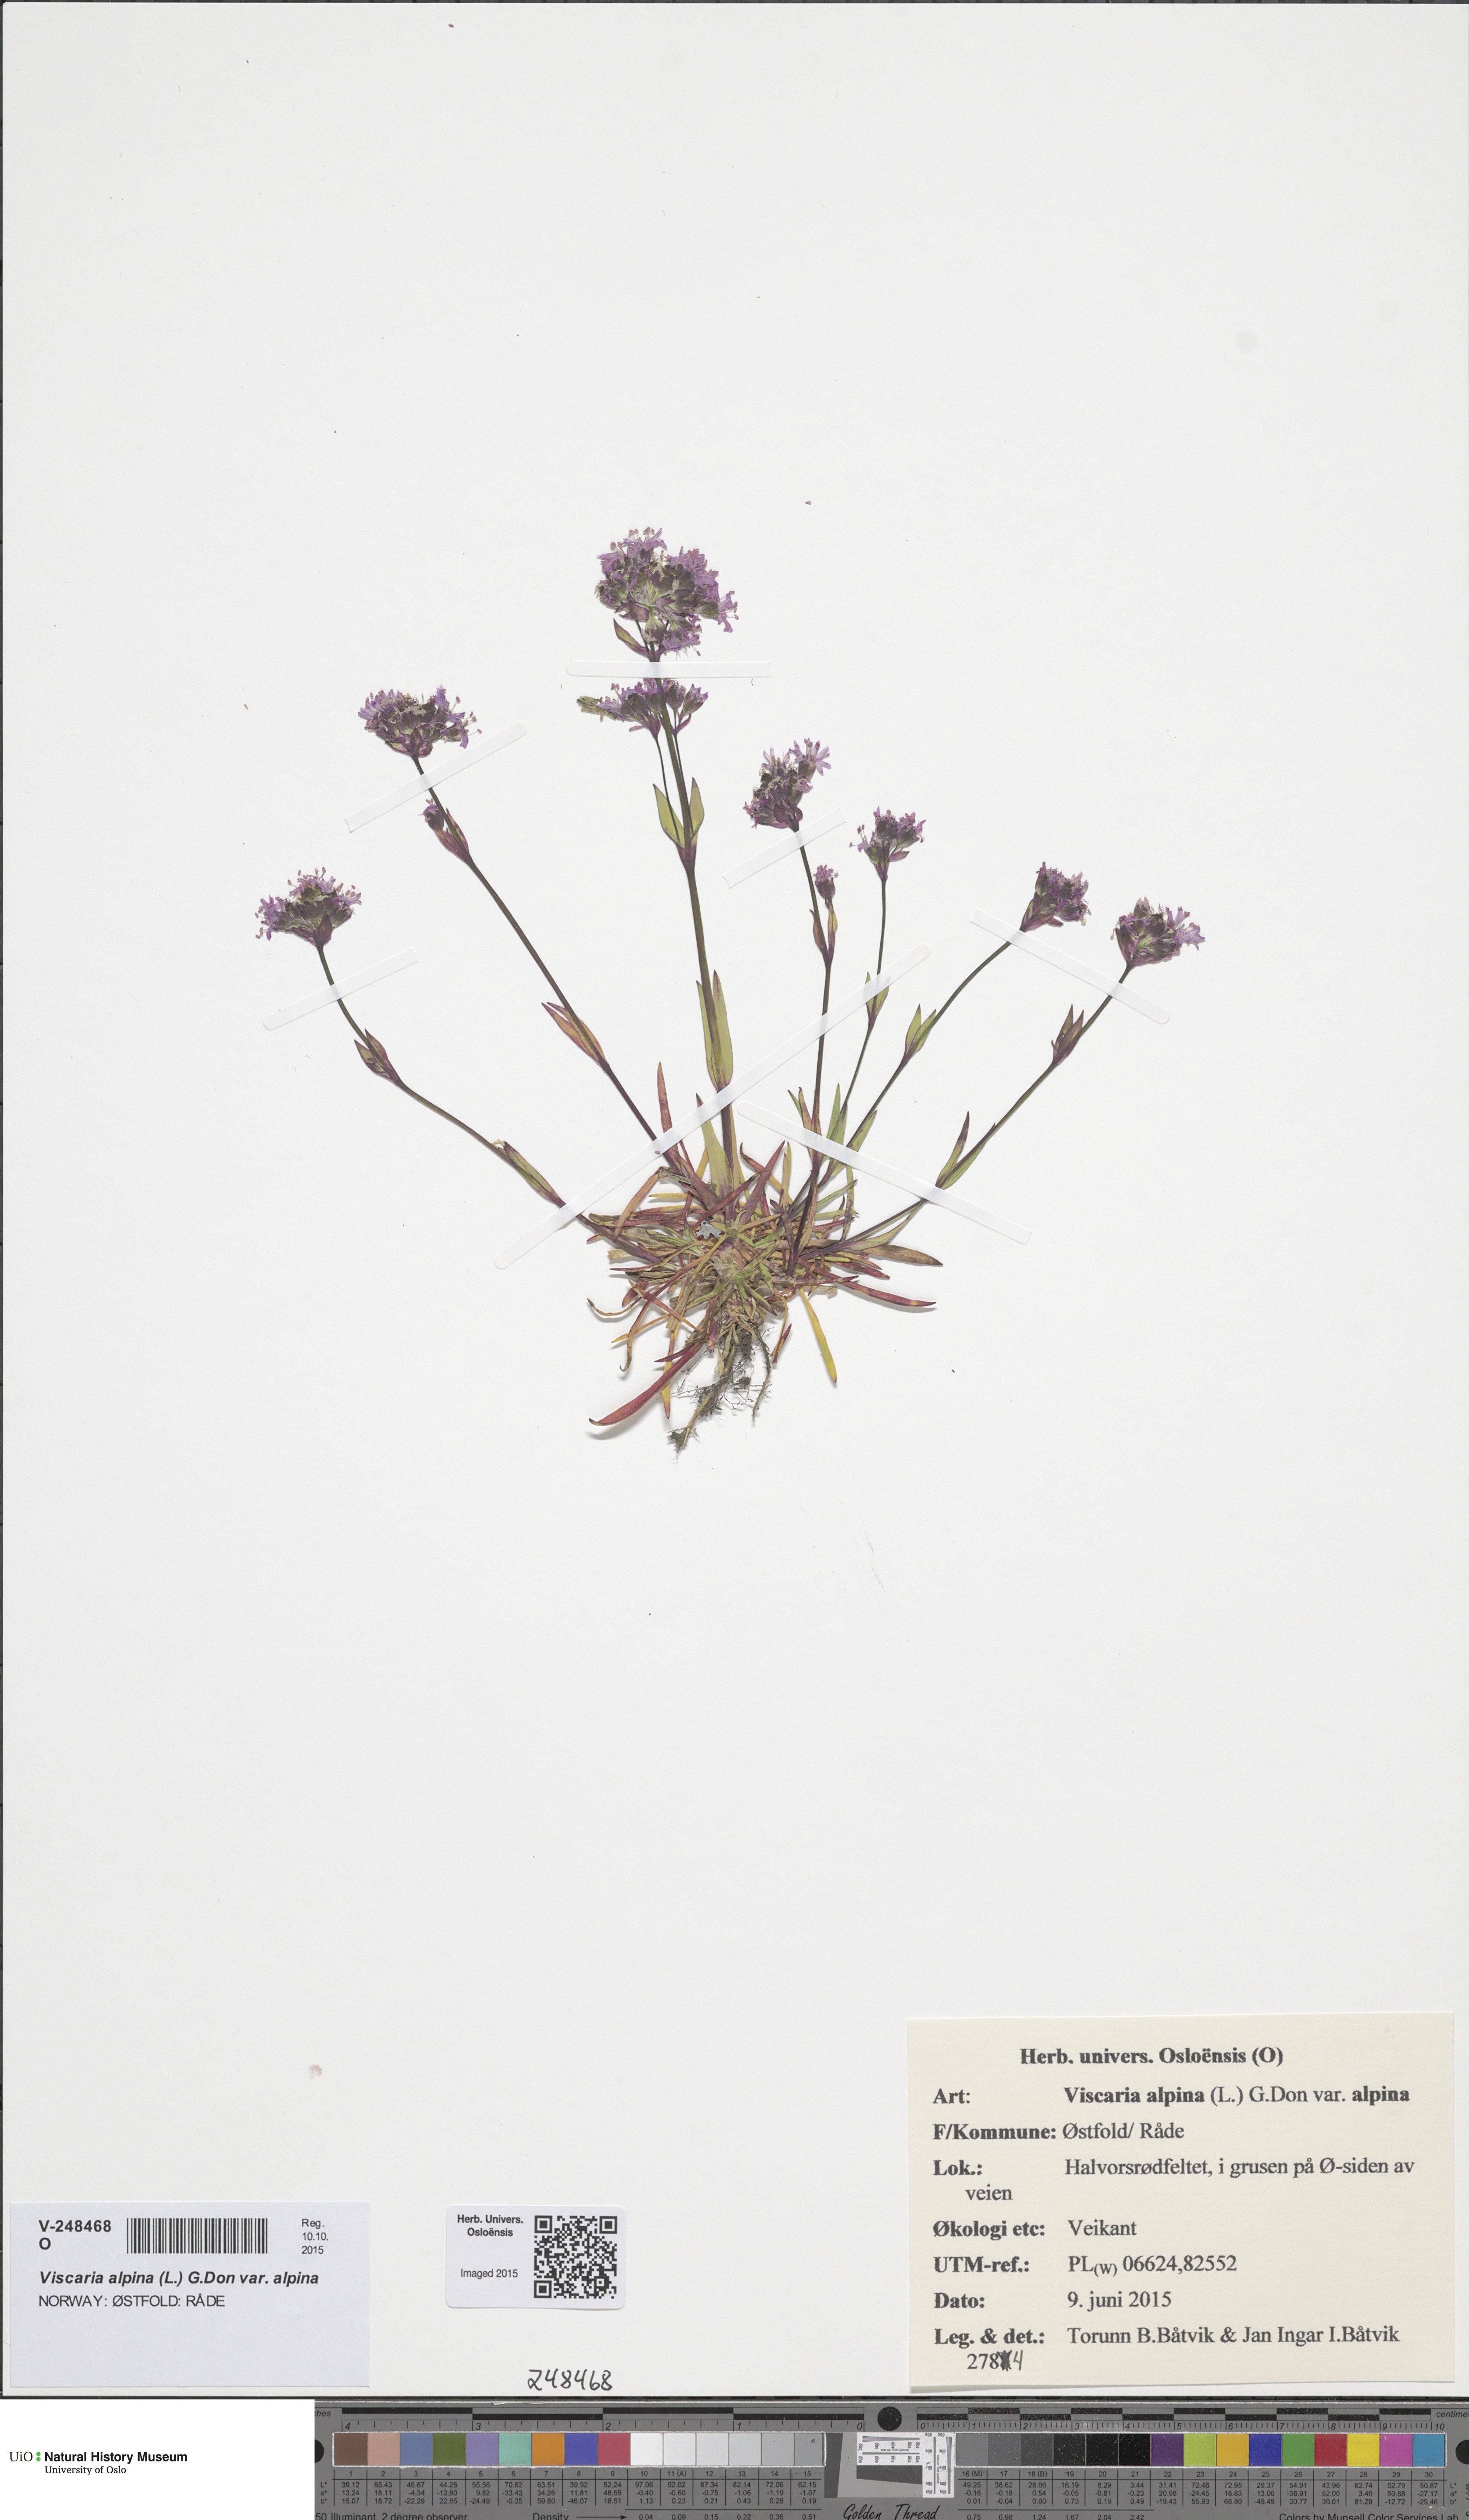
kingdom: Plantae
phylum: Tracheophyta
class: Magnoliopsida
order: Caryophyllales
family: Caryophyllaceae
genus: Viscaria
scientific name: Viscaria alpina
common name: Alpine campion
